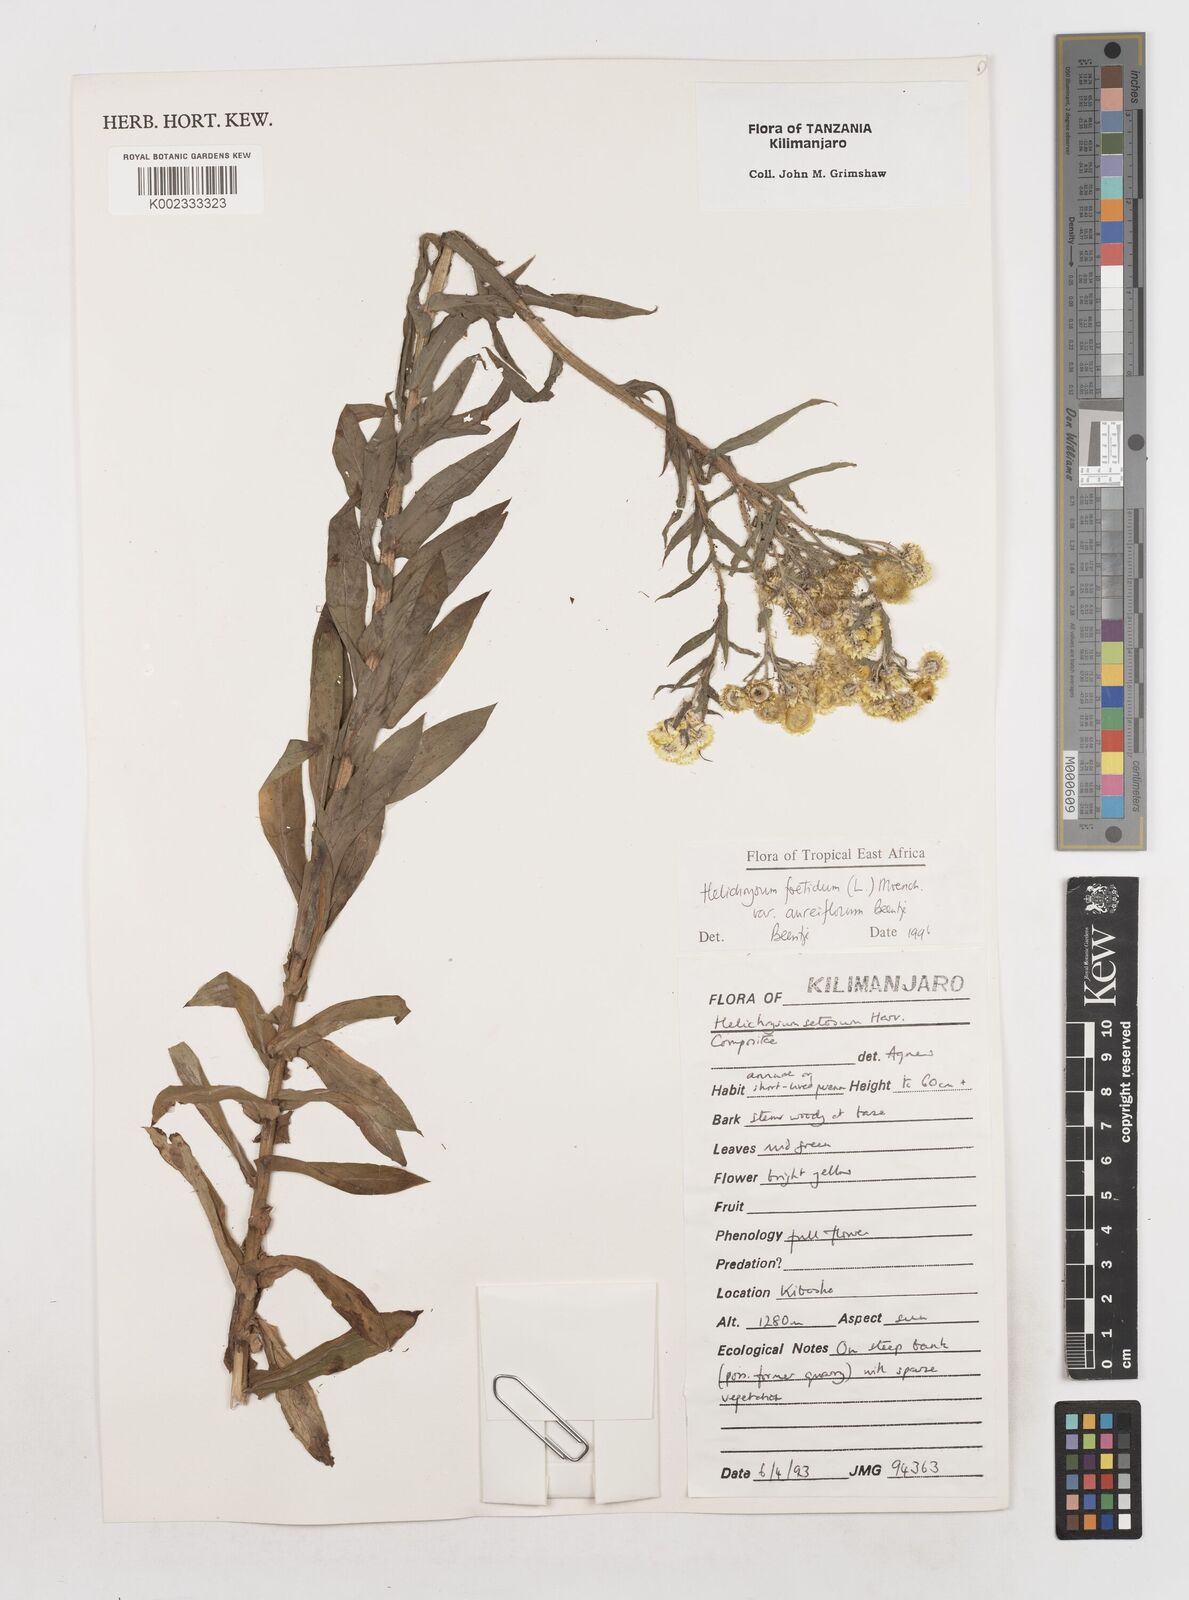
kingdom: Plantae
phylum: Tracheophyta
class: Magnoliopsida
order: Asterales
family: Asteraceae
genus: Helichrysum
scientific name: Helichrysum foetidum
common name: Stinking everlasting
